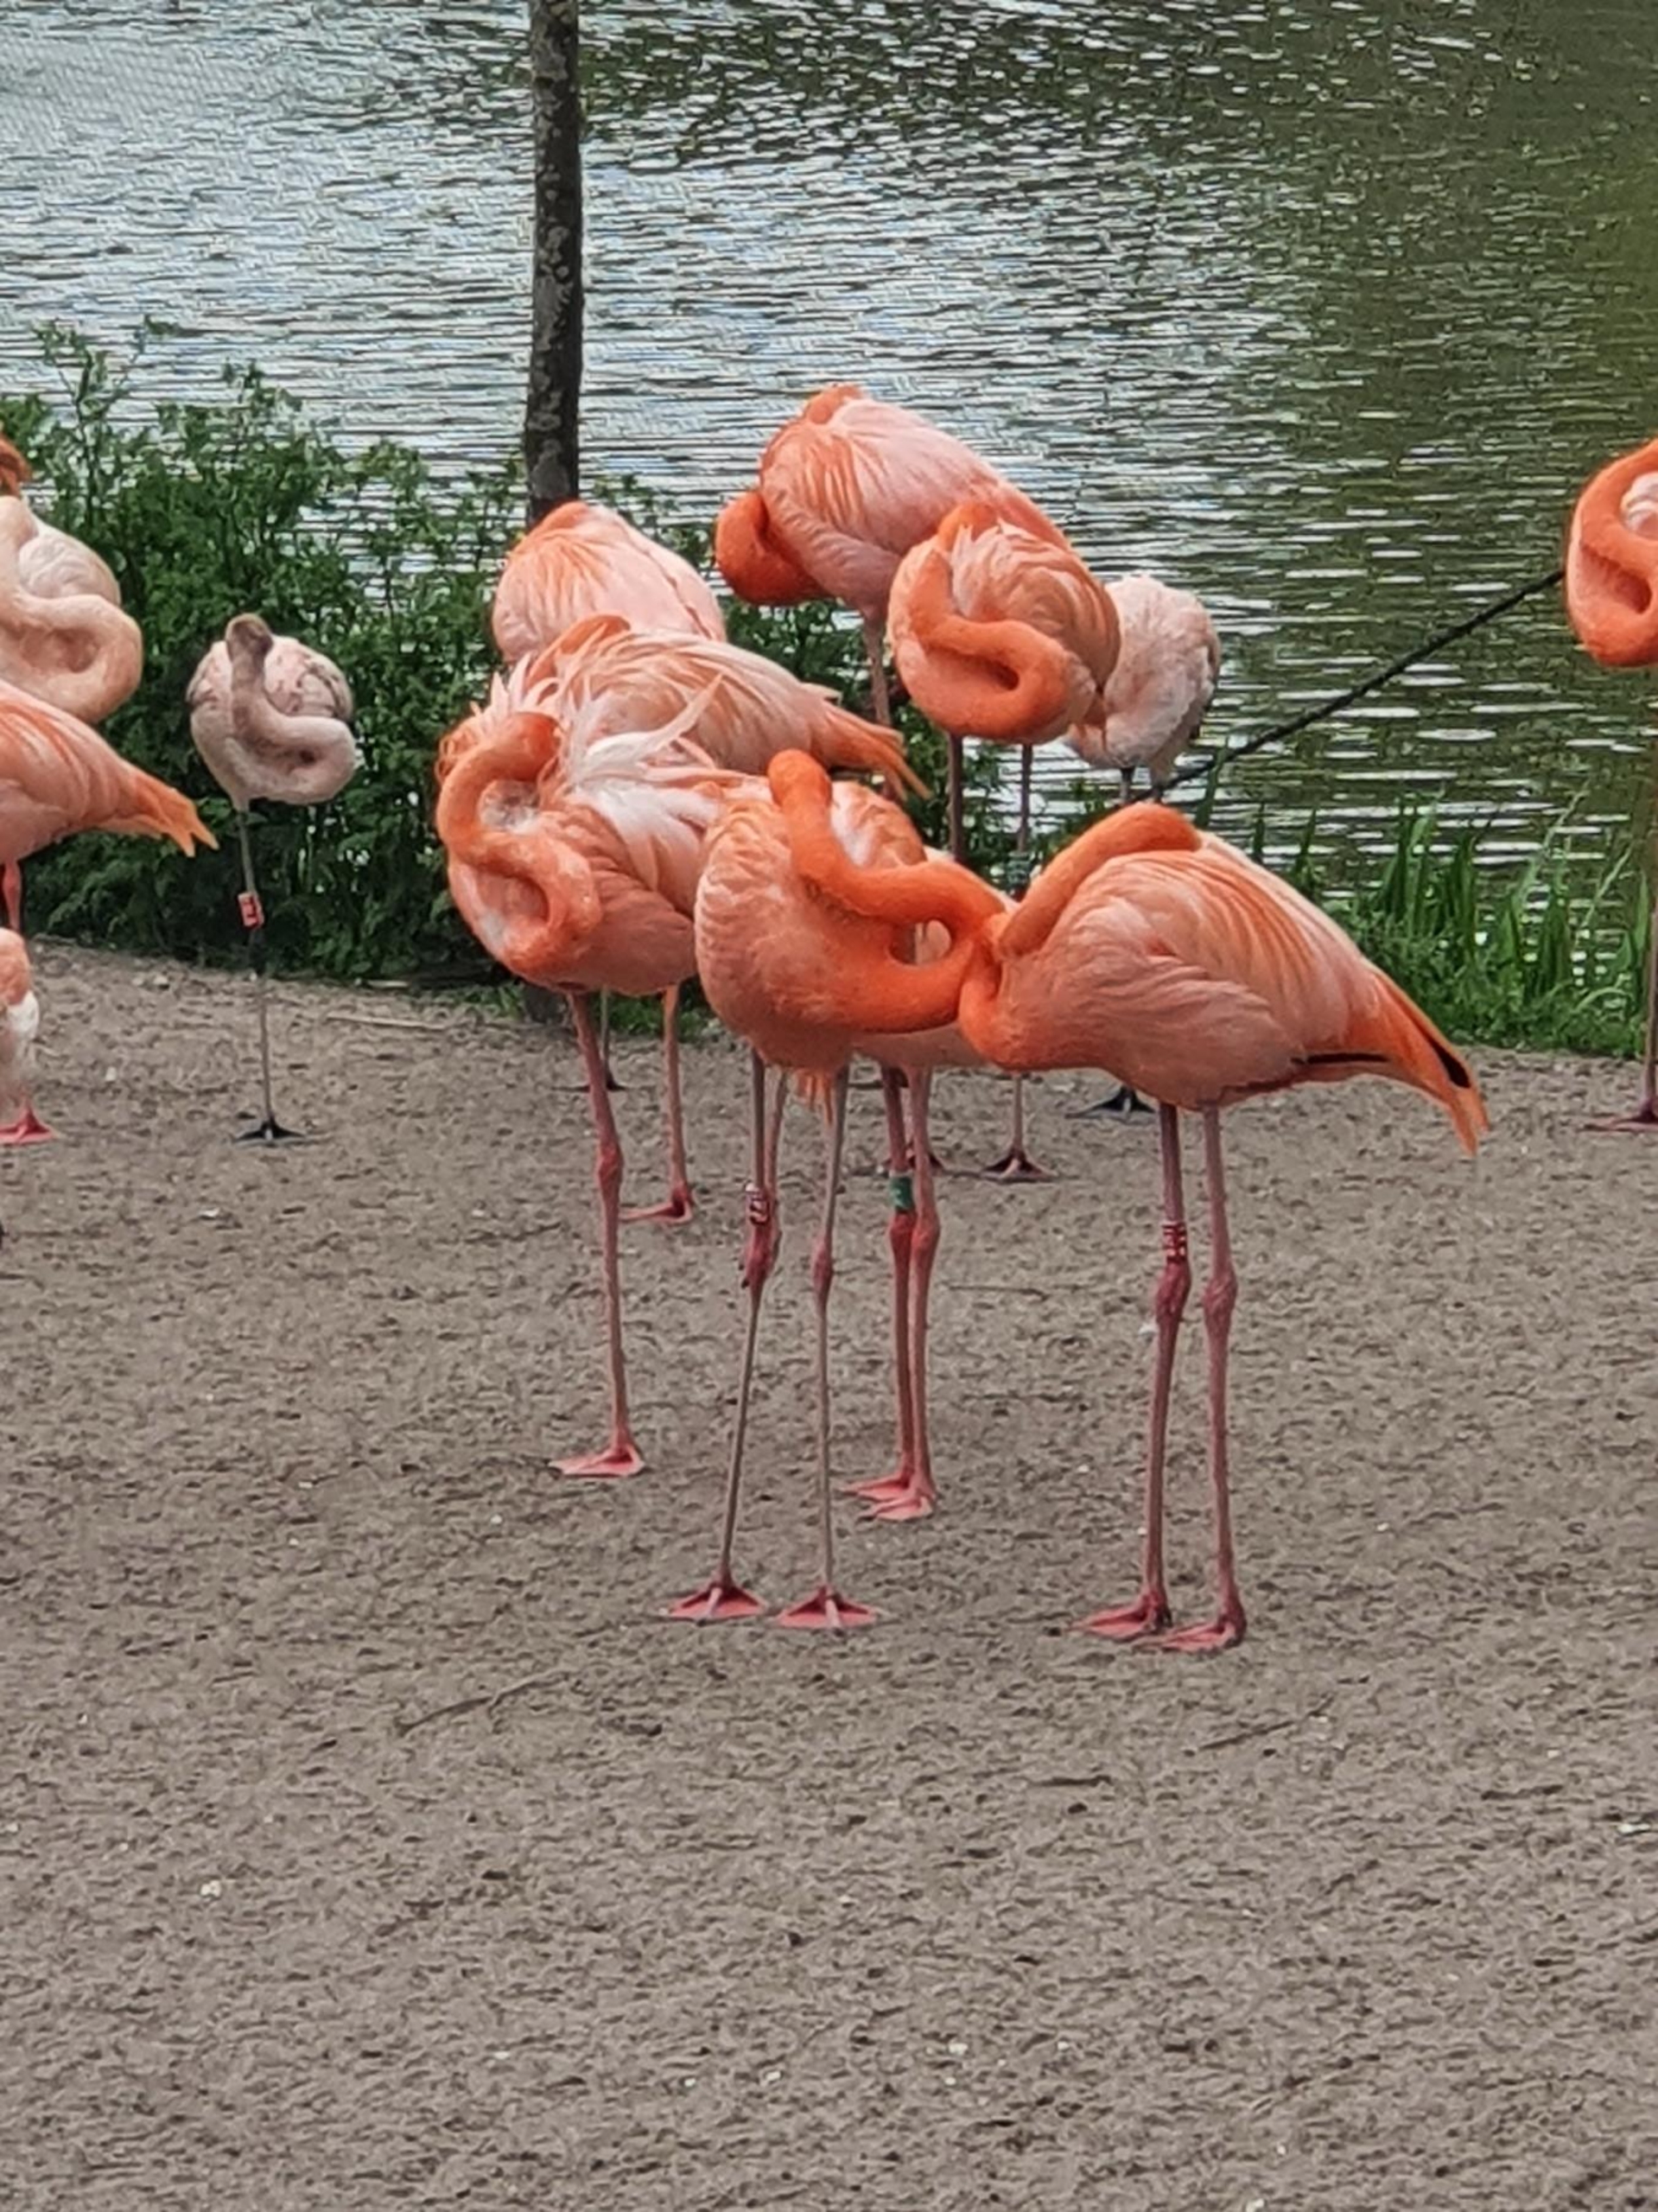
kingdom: Animalia
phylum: Chordata
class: Aves
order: Phoenicopteriformes
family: Phoenicopteridae
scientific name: Phoenicopteridae
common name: Flamingoer
